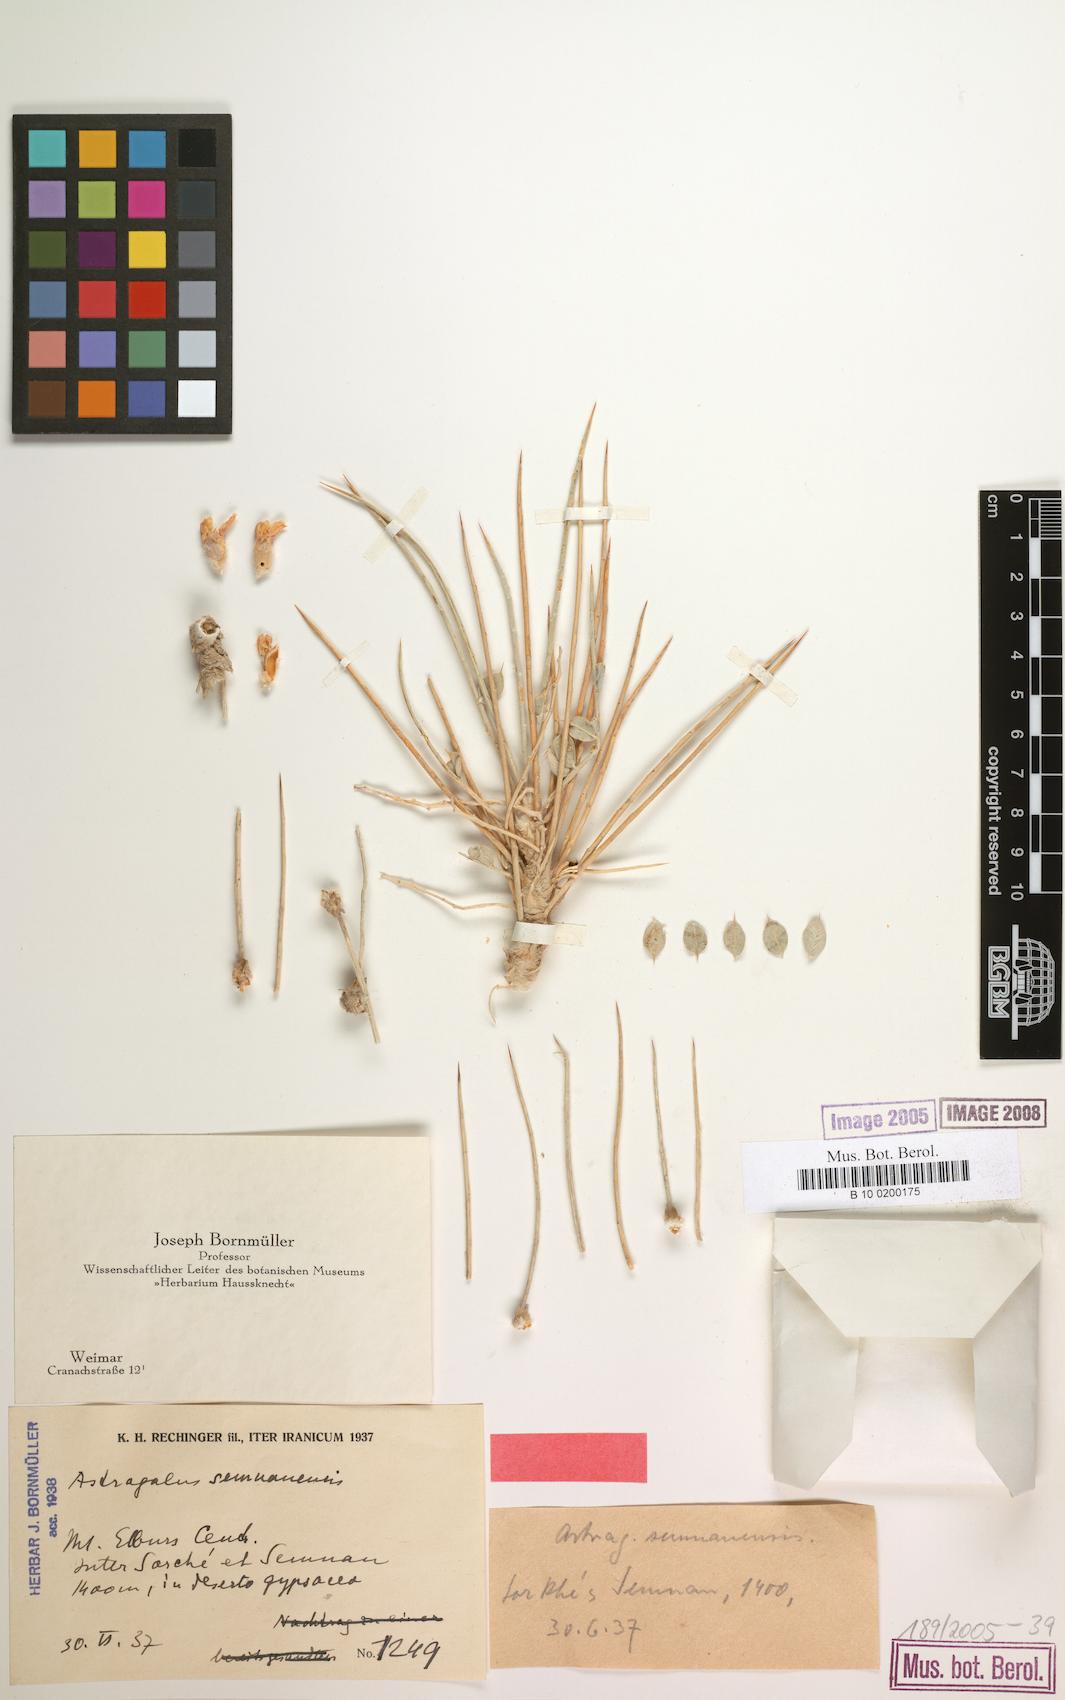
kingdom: Plantae
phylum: Tracheophyta
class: Magnoliopsida
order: Fabales
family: Fabaceae
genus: Astragalus
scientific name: Astragalus semnanensis
